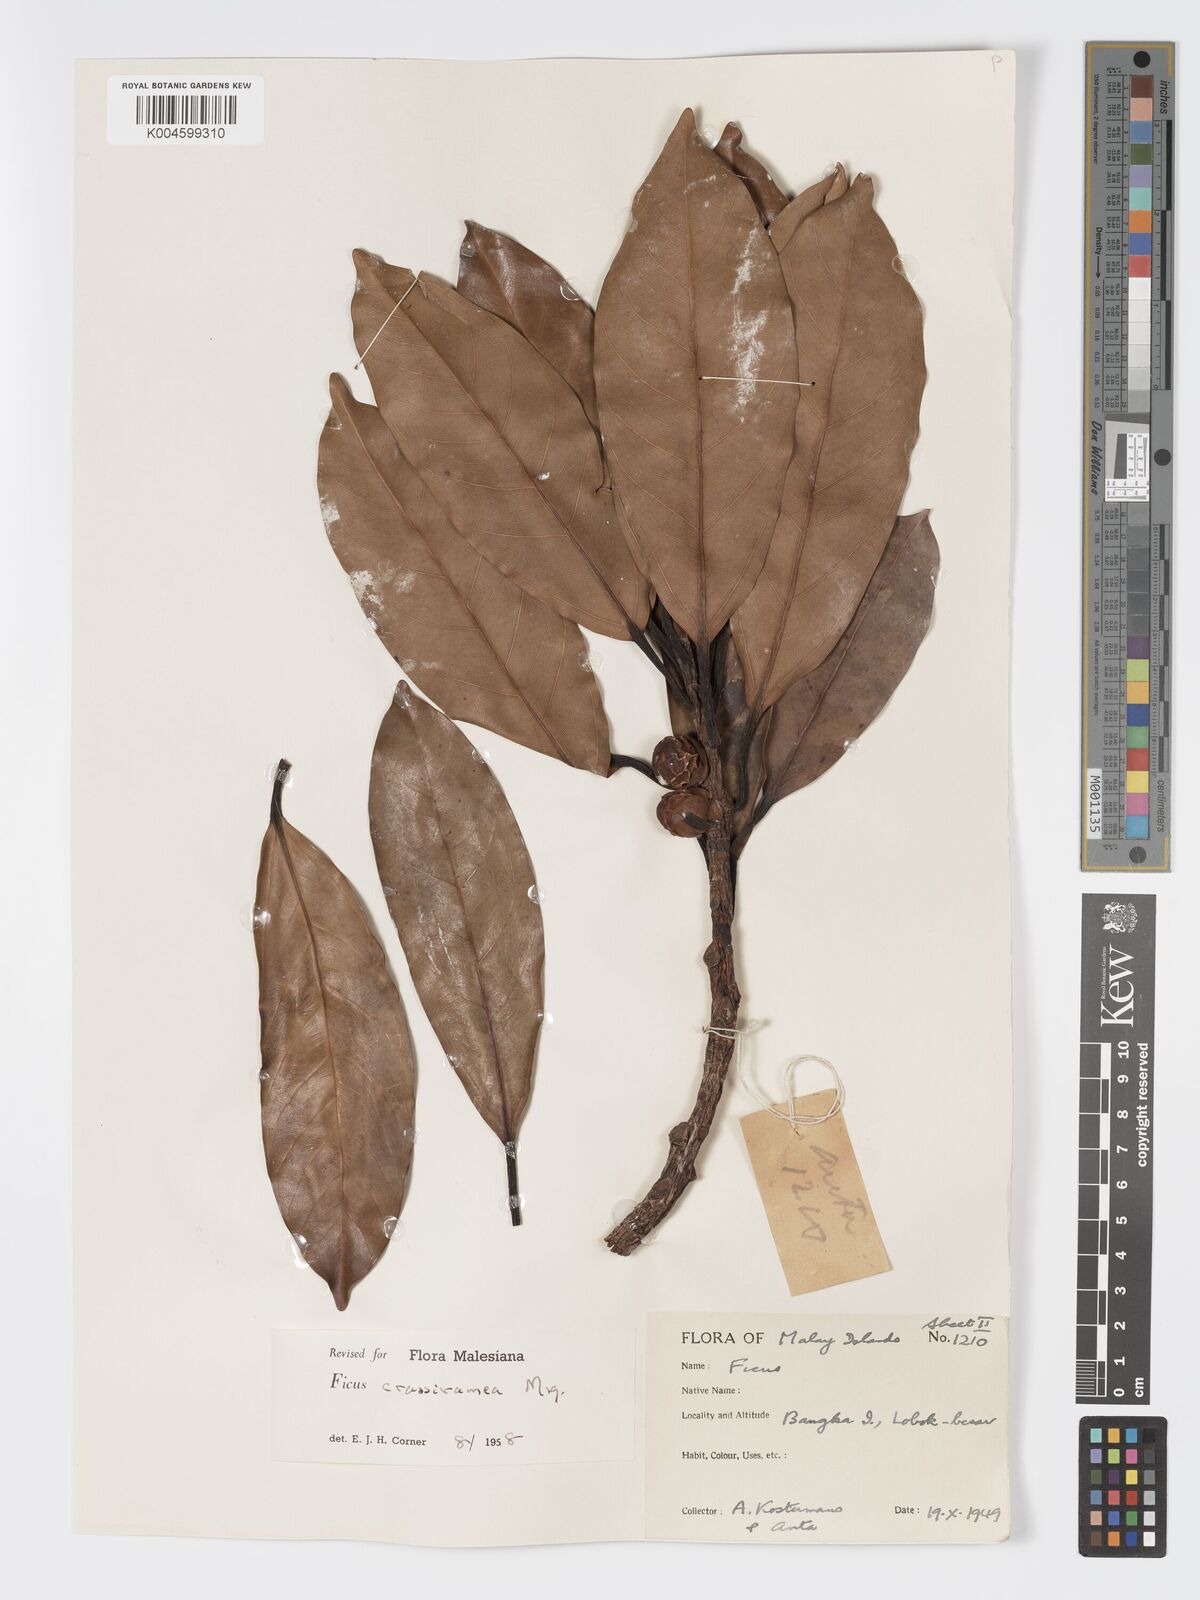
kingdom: Plantae
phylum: Tracheophyta
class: Magnoliopsida
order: Rosales
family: Moraceae
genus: Ficus
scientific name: Ficus crassiramea
